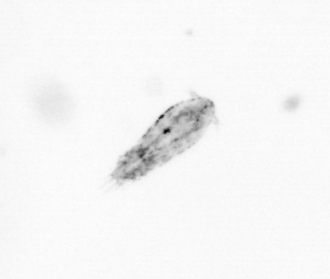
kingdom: Animalia
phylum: Arthropoda
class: Copepoda
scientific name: Copepoda
